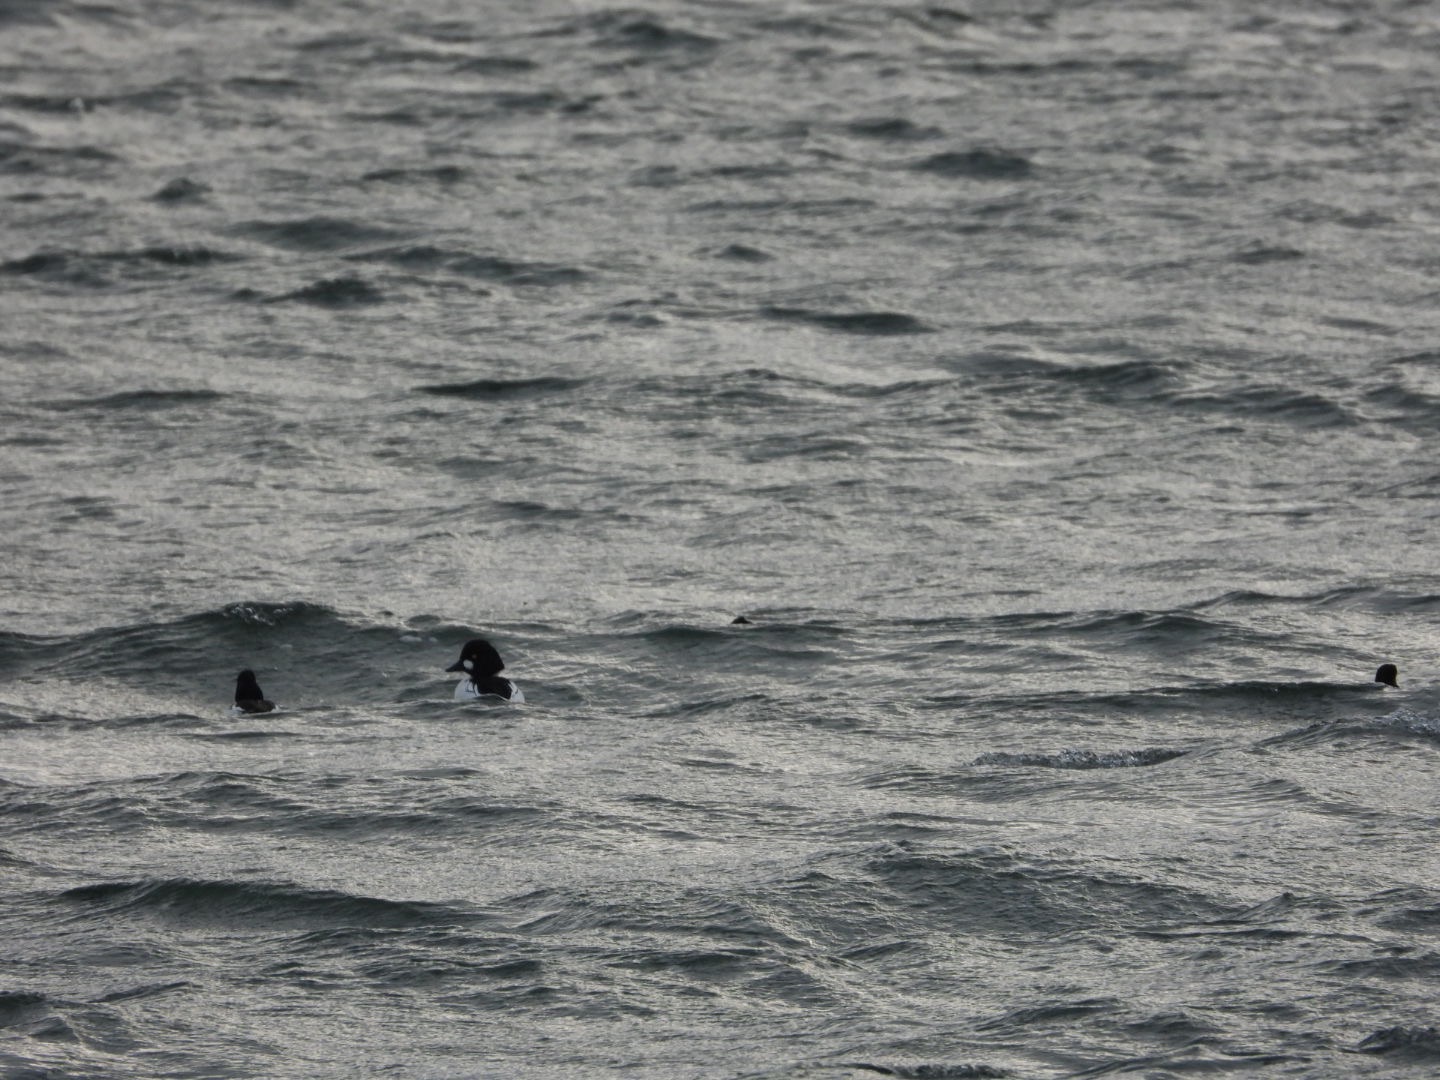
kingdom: Animalia
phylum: Chordata
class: Aves
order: Anseriformes
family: Anatidae
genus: Bucephala
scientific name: Bucephala clangula
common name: Hvinand
